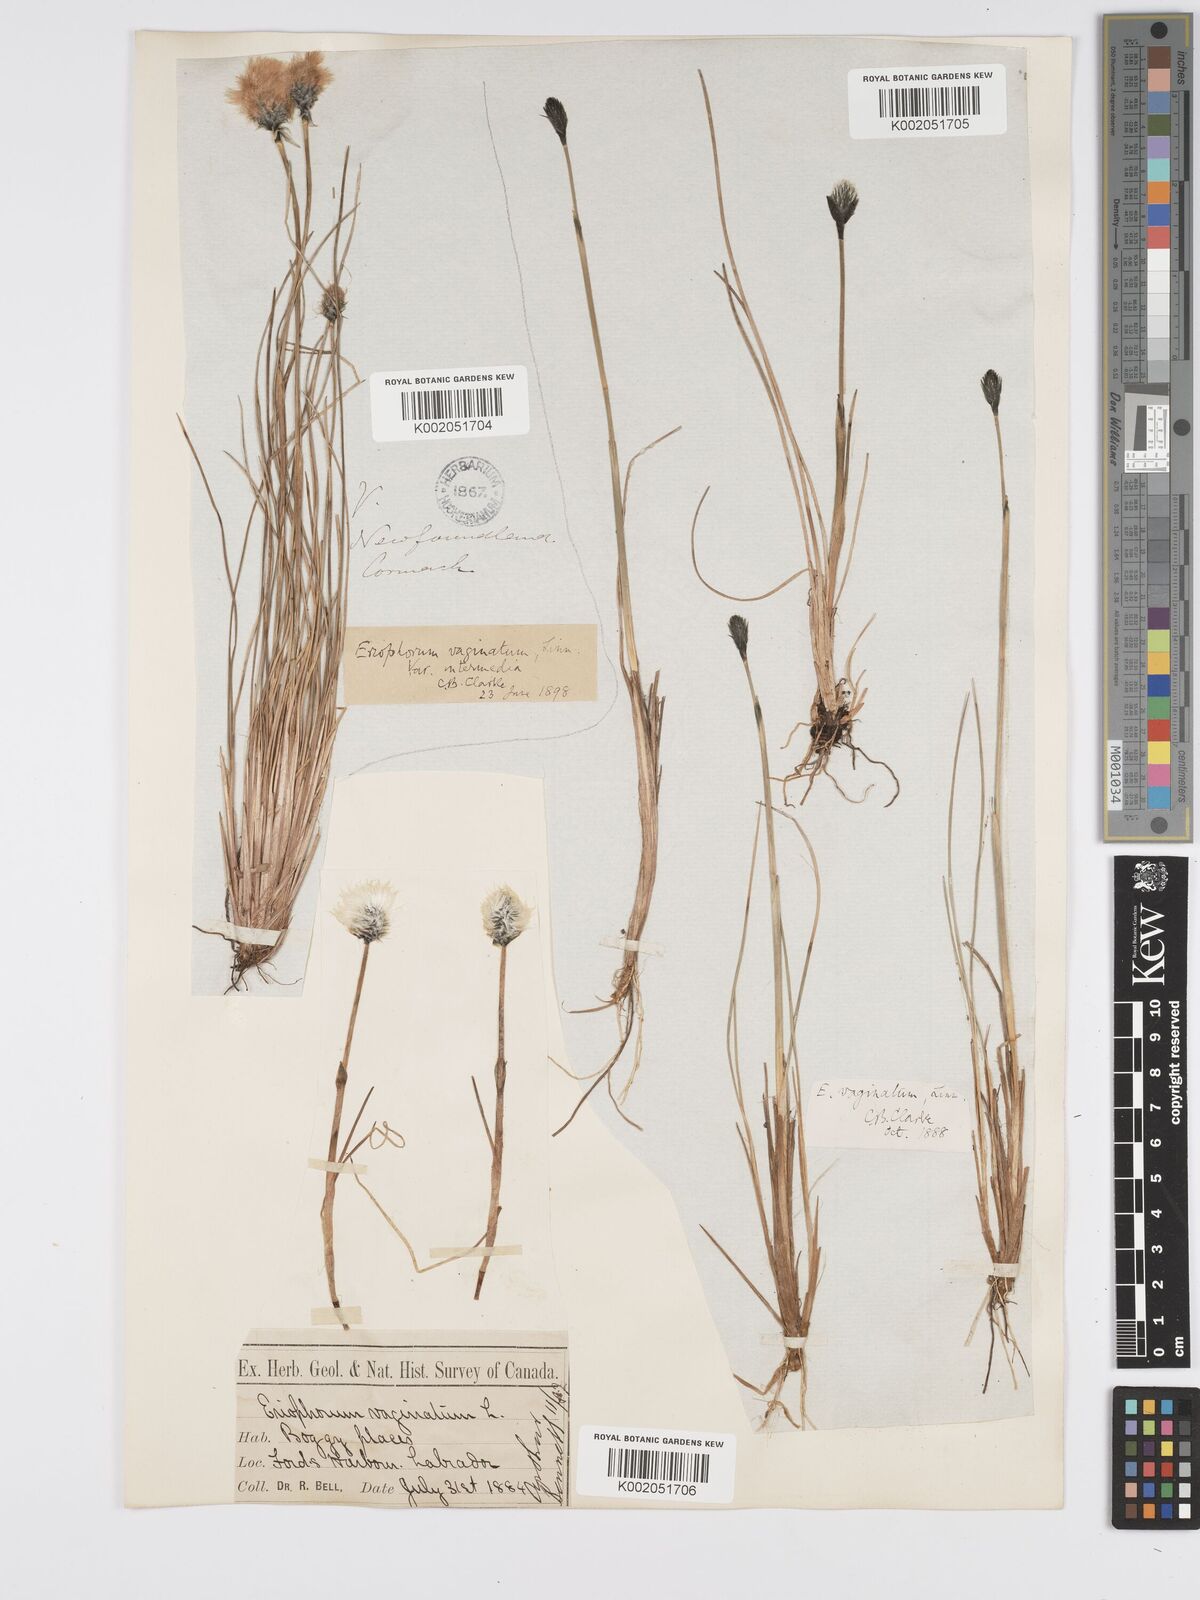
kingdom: Plantae
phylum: Tracheophyta
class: Liliopsida
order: Poales
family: Cyperaceae
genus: Eriophorum
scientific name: Eriophorum vaginatum
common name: Hare's-tail cottongrass
